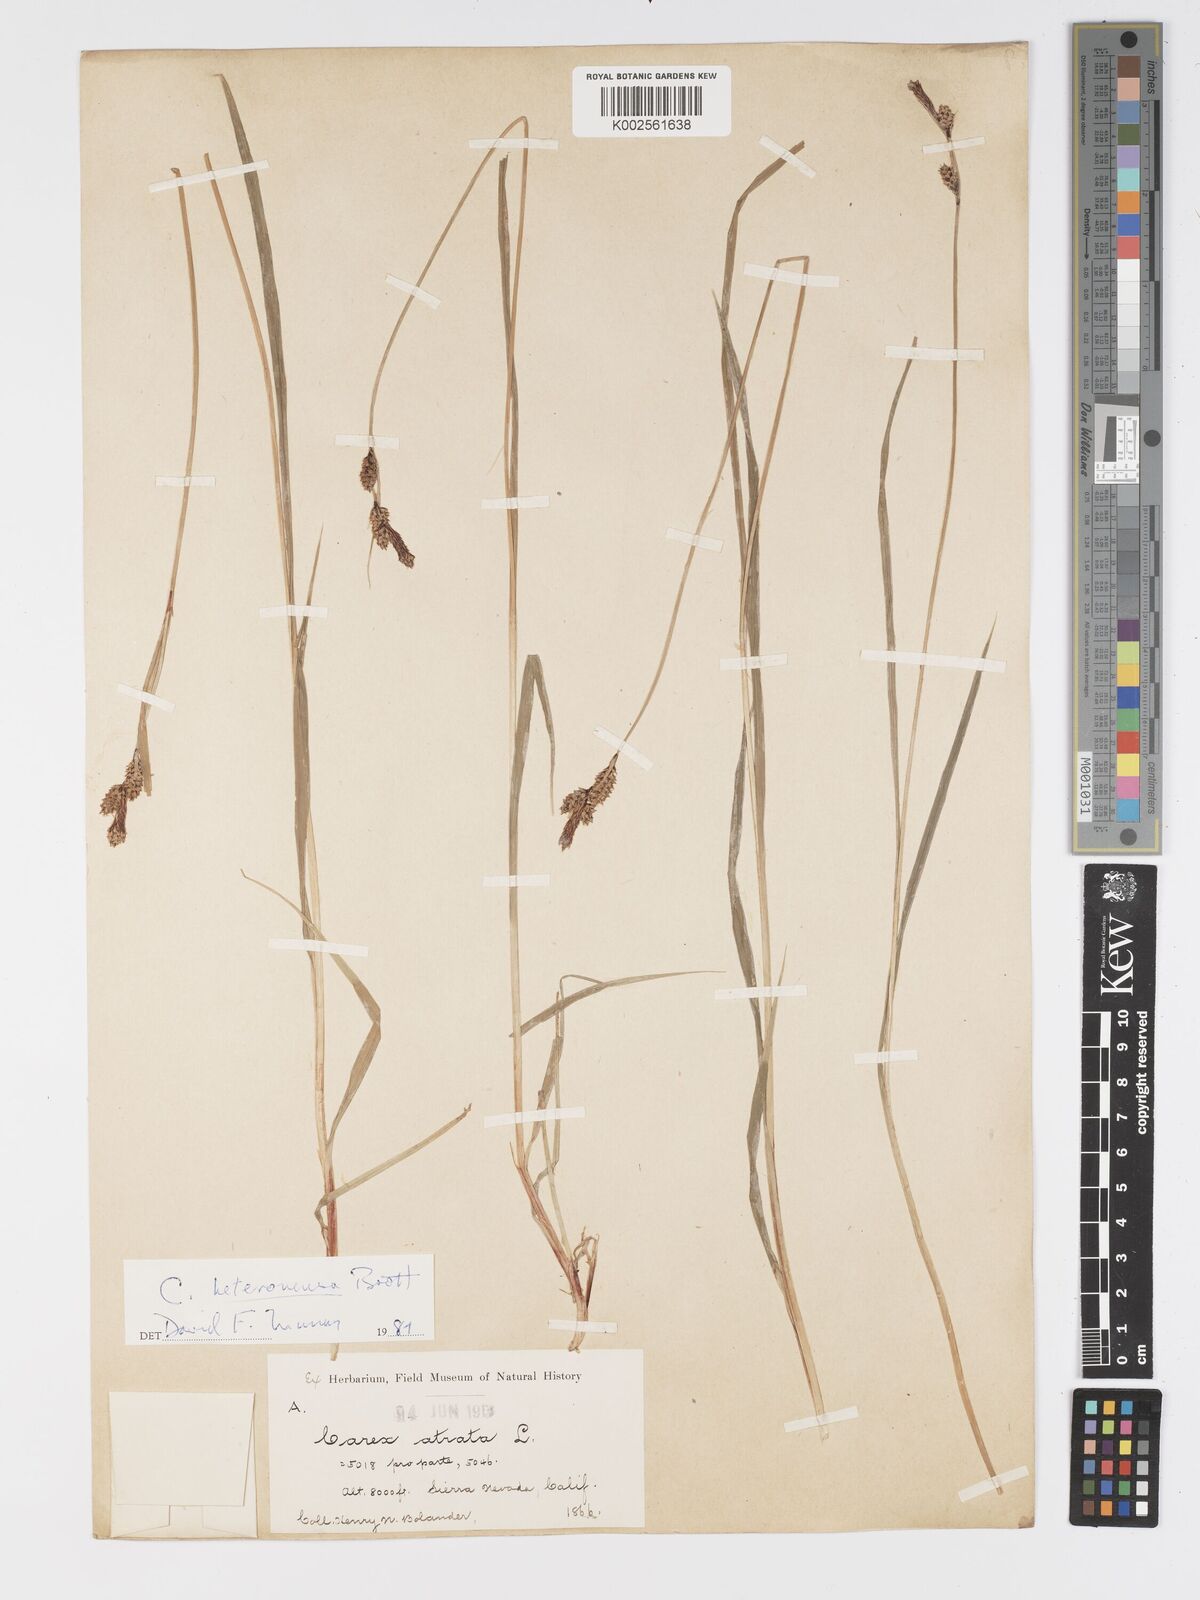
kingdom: Plantae
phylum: Tracheophyta
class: Liliopsida
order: Poales
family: Cyperaceae
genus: Carex
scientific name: Carex heteroneura
